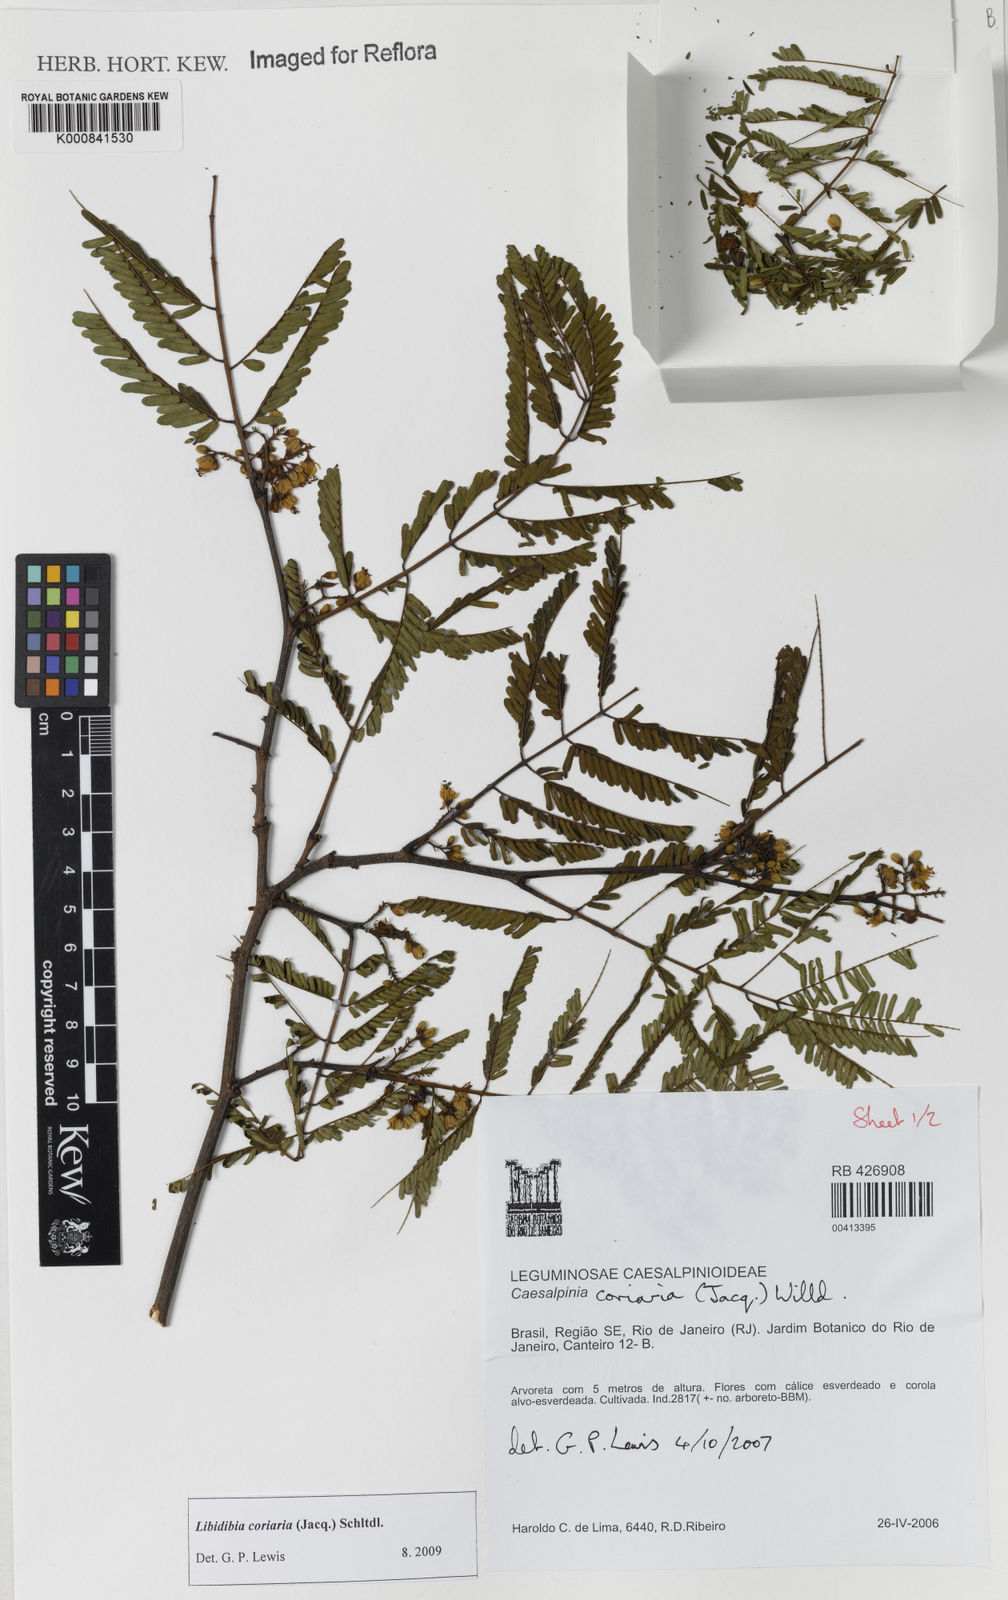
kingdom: Plantae
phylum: Tracheophyta
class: Magnoliopsida
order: Fabales
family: Fabaceae
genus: Libidibia
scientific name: Libidibia coriaria
